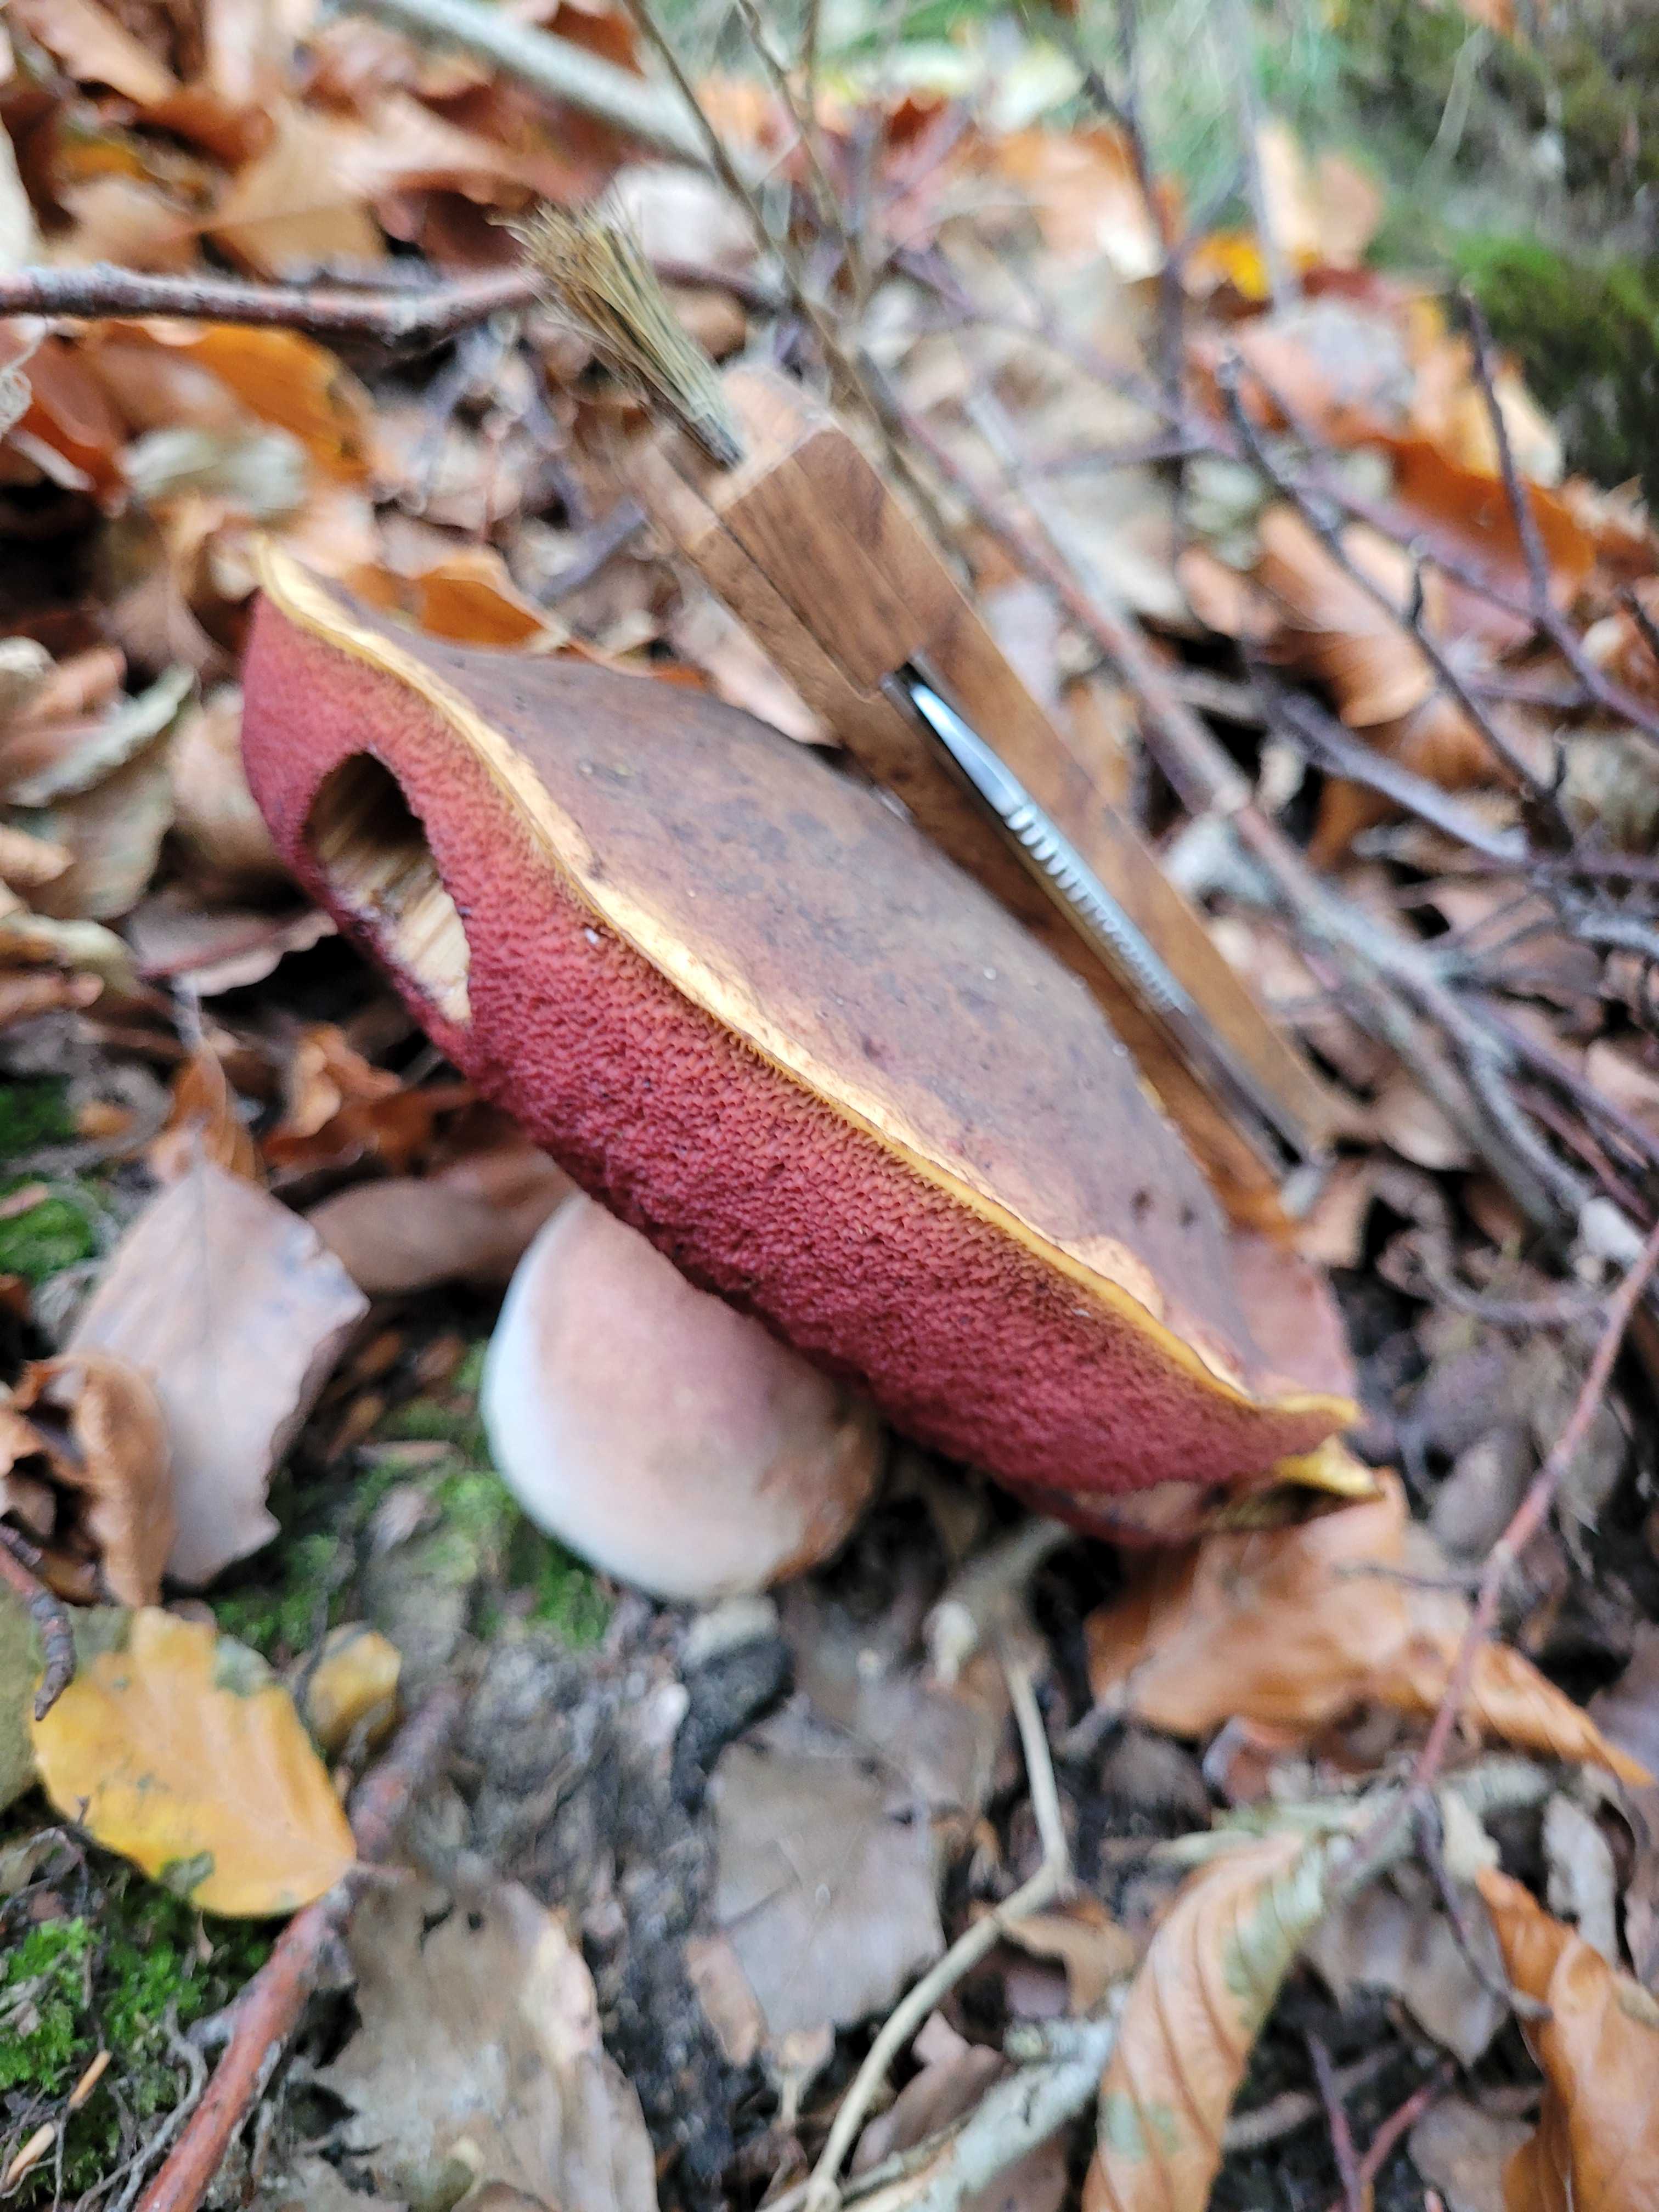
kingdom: Fungi
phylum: Basidiomycota
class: Agaricomycetes
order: Boletales
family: Boletaceae
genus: Neoboletus
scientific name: Neoboletus erythropus
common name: punktstokket indigorørhat
